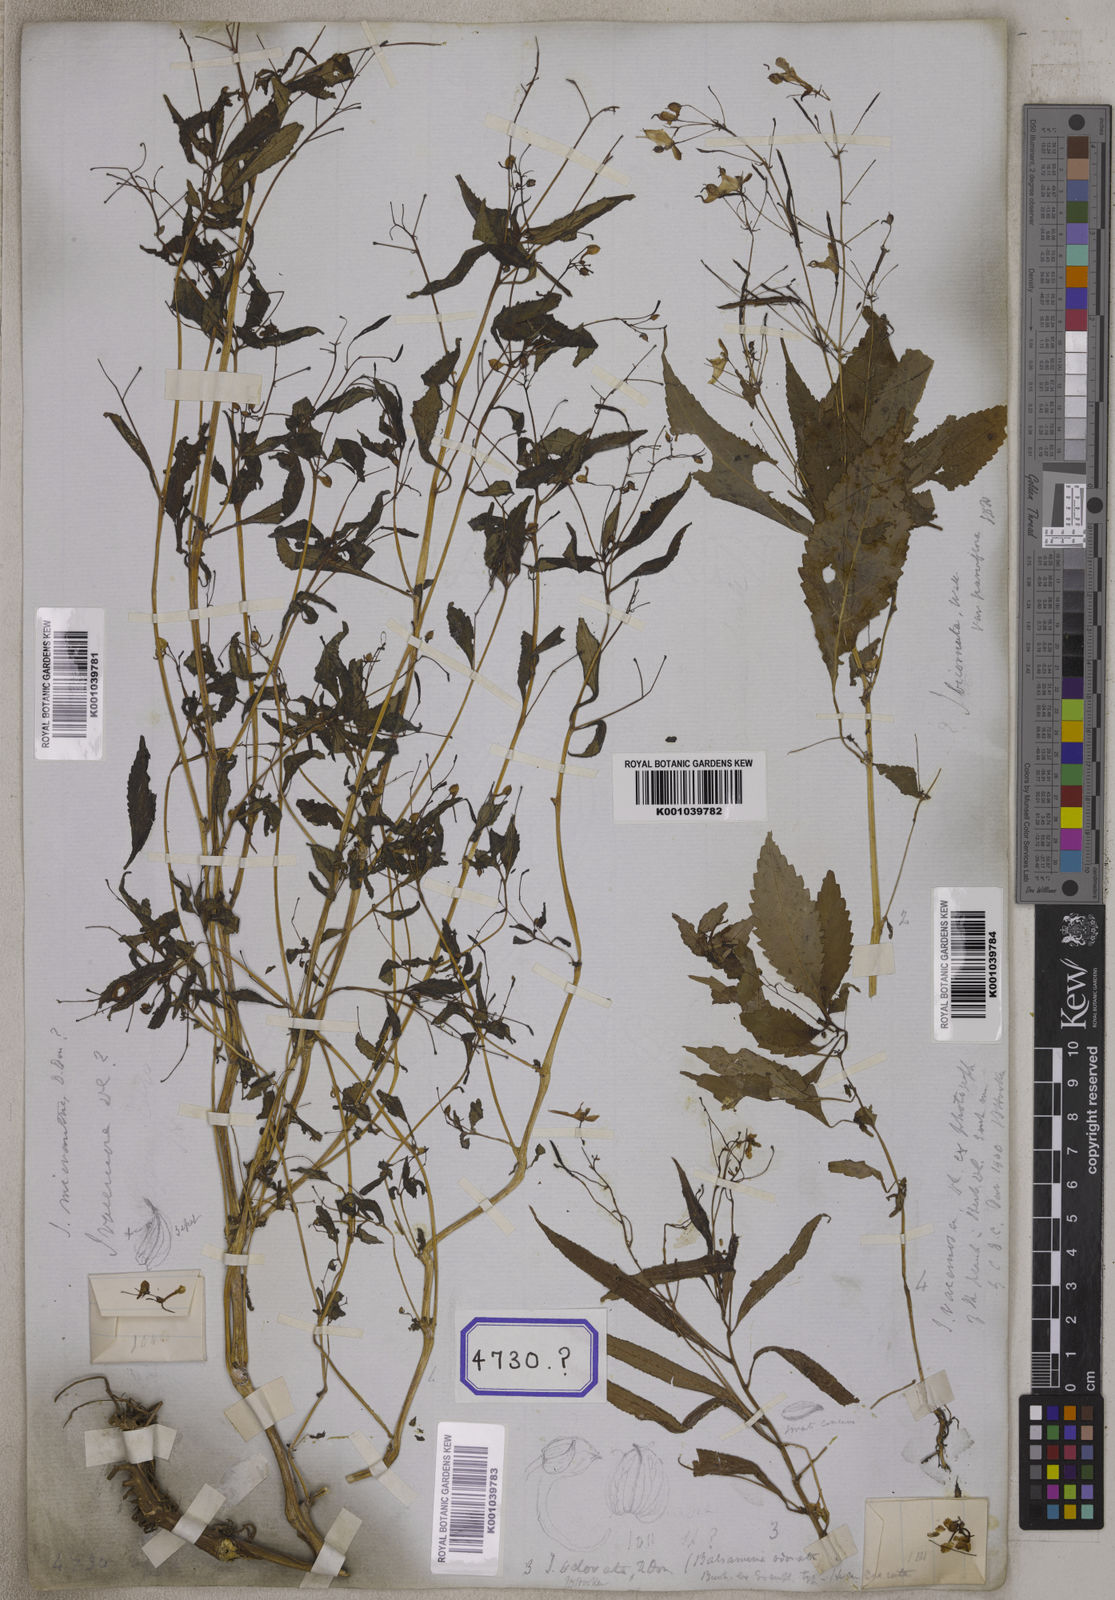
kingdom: Plantae
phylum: Tracheophyta
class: Magnoliopsida
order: Ericales
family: Balsaminaceae
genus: Impatiens
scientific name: Impatiens
